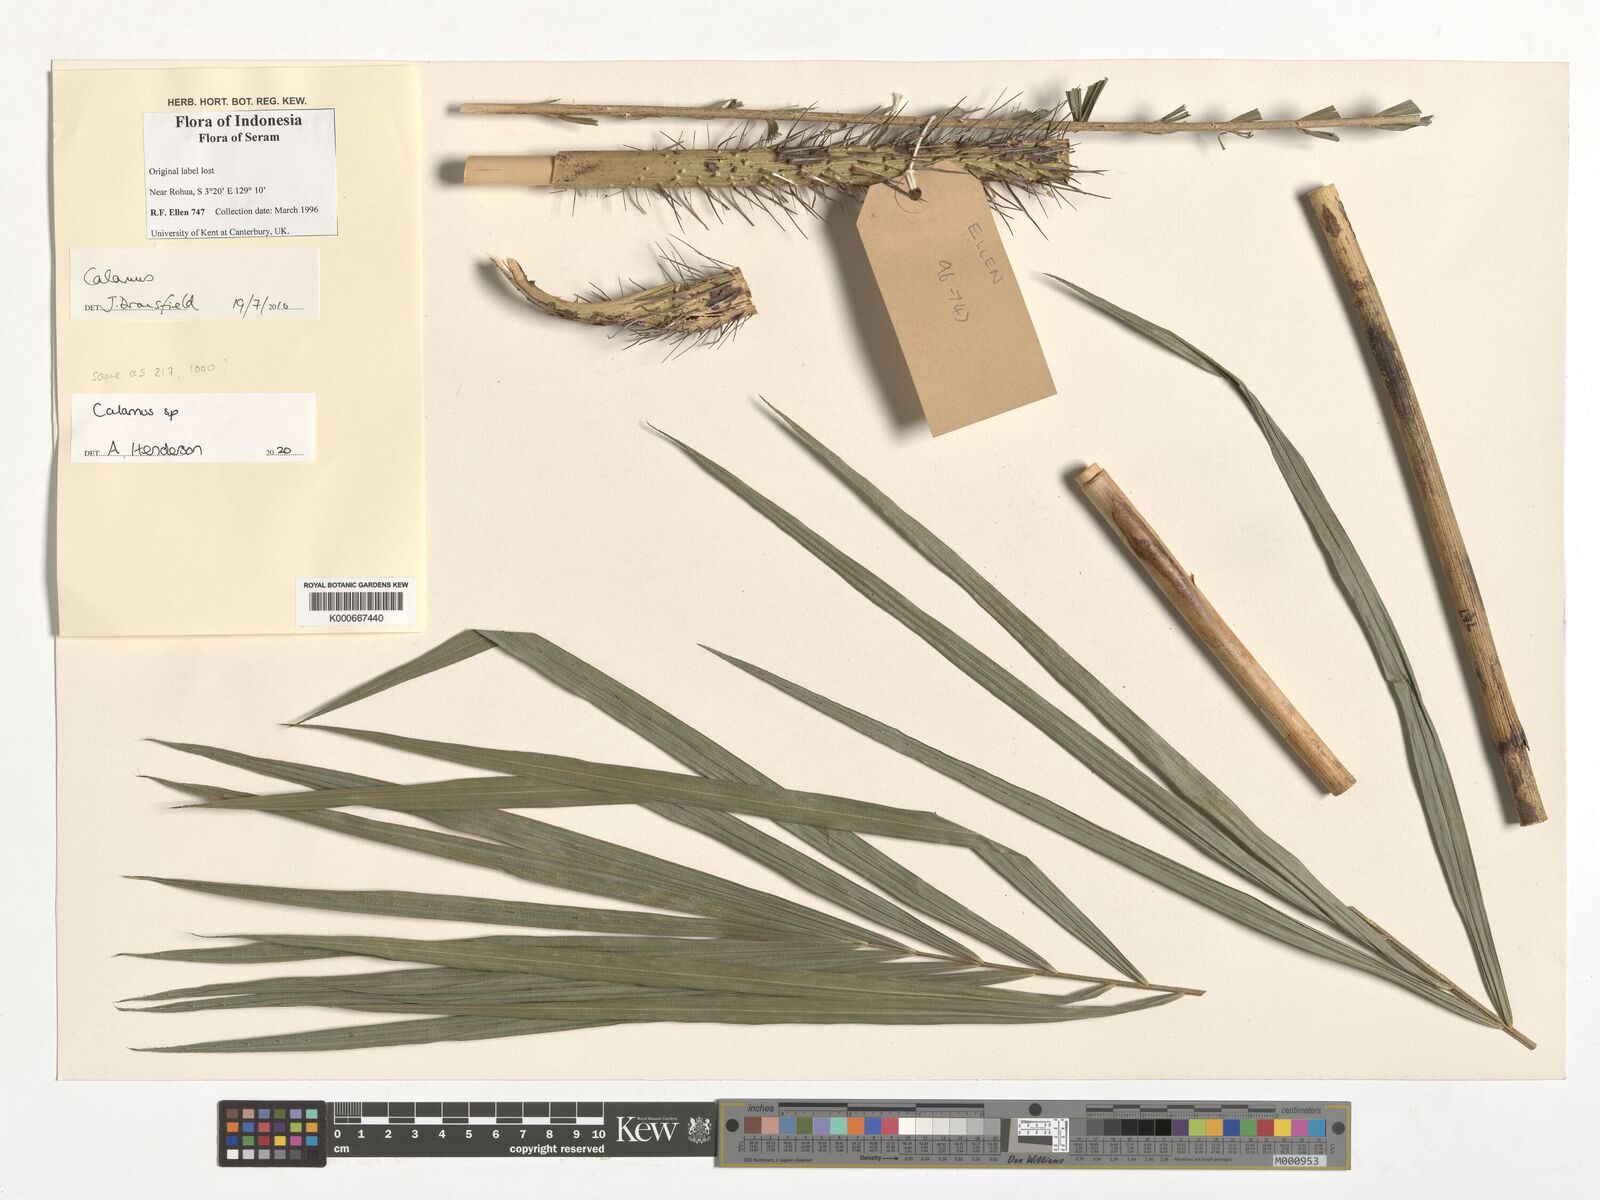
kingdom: Plantae
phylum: Tracheophyta
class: Liliopsida
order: Arecales
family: Arecaceae
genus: Calamus
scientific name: Calamus
